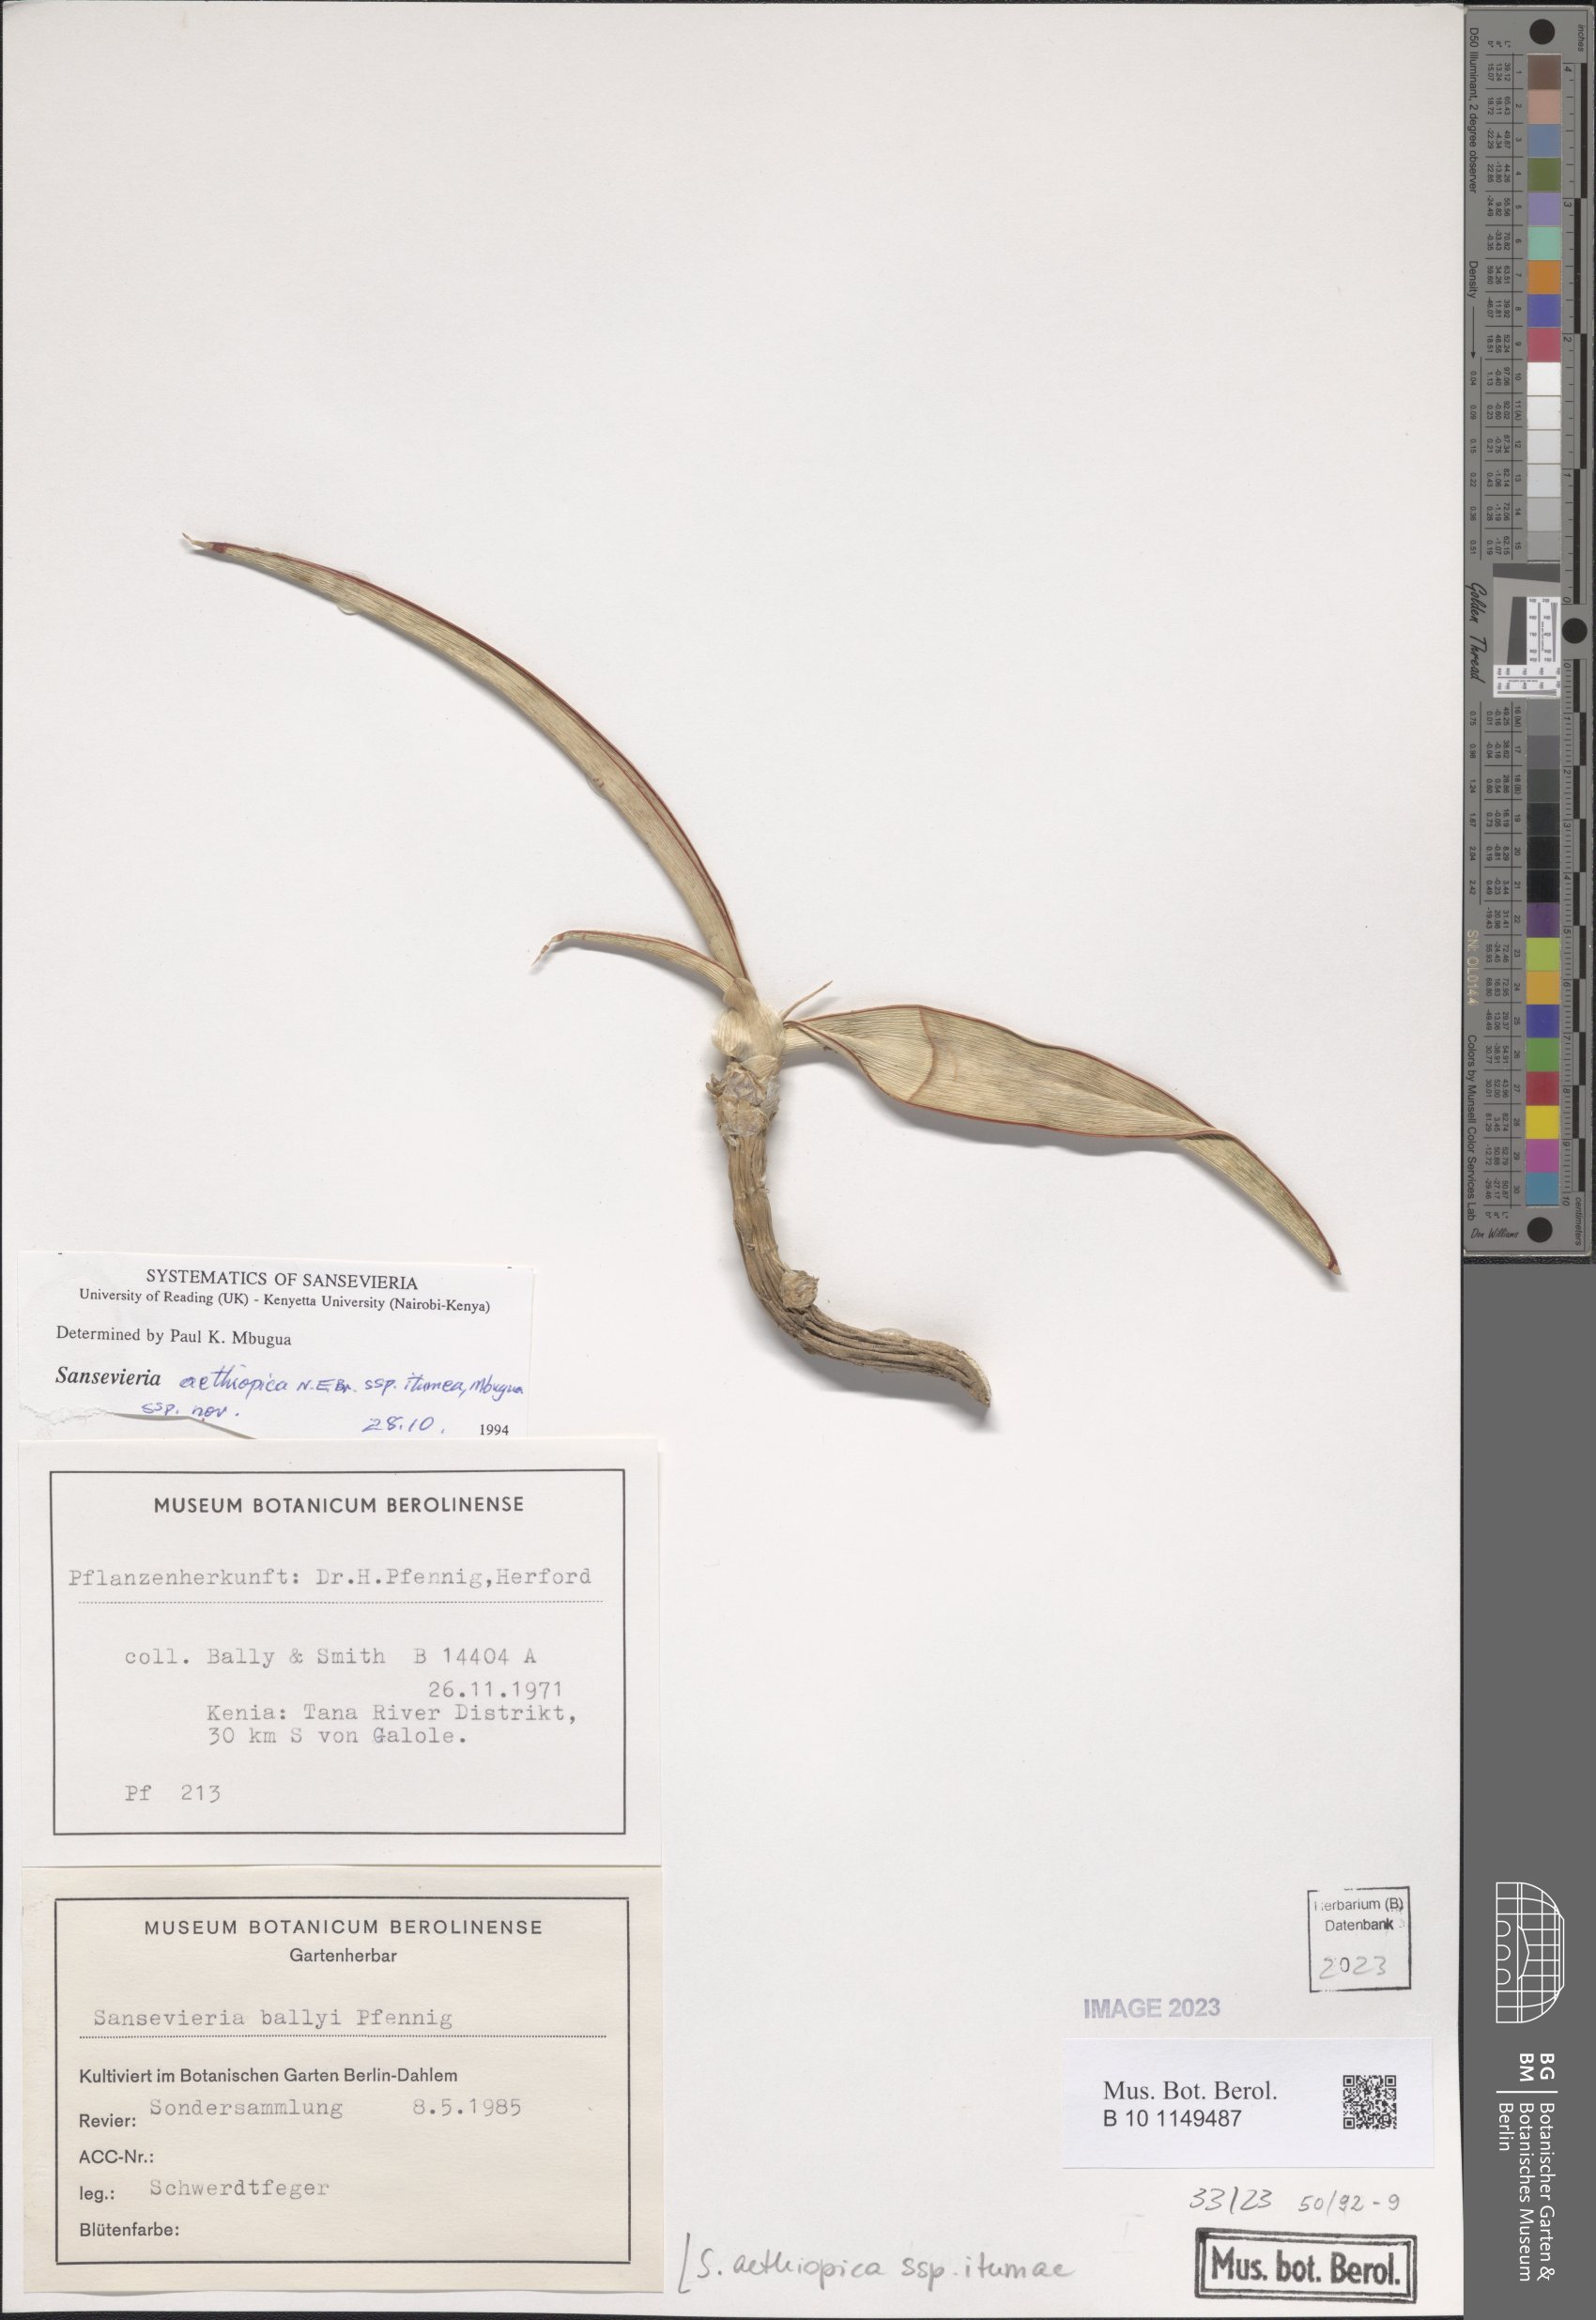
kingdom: Plantae
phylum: Tracheophyta
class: Liliopsida
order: Asparagales
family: Asparagaceae
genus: Sansevieria
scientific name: Sansevieria itumea
